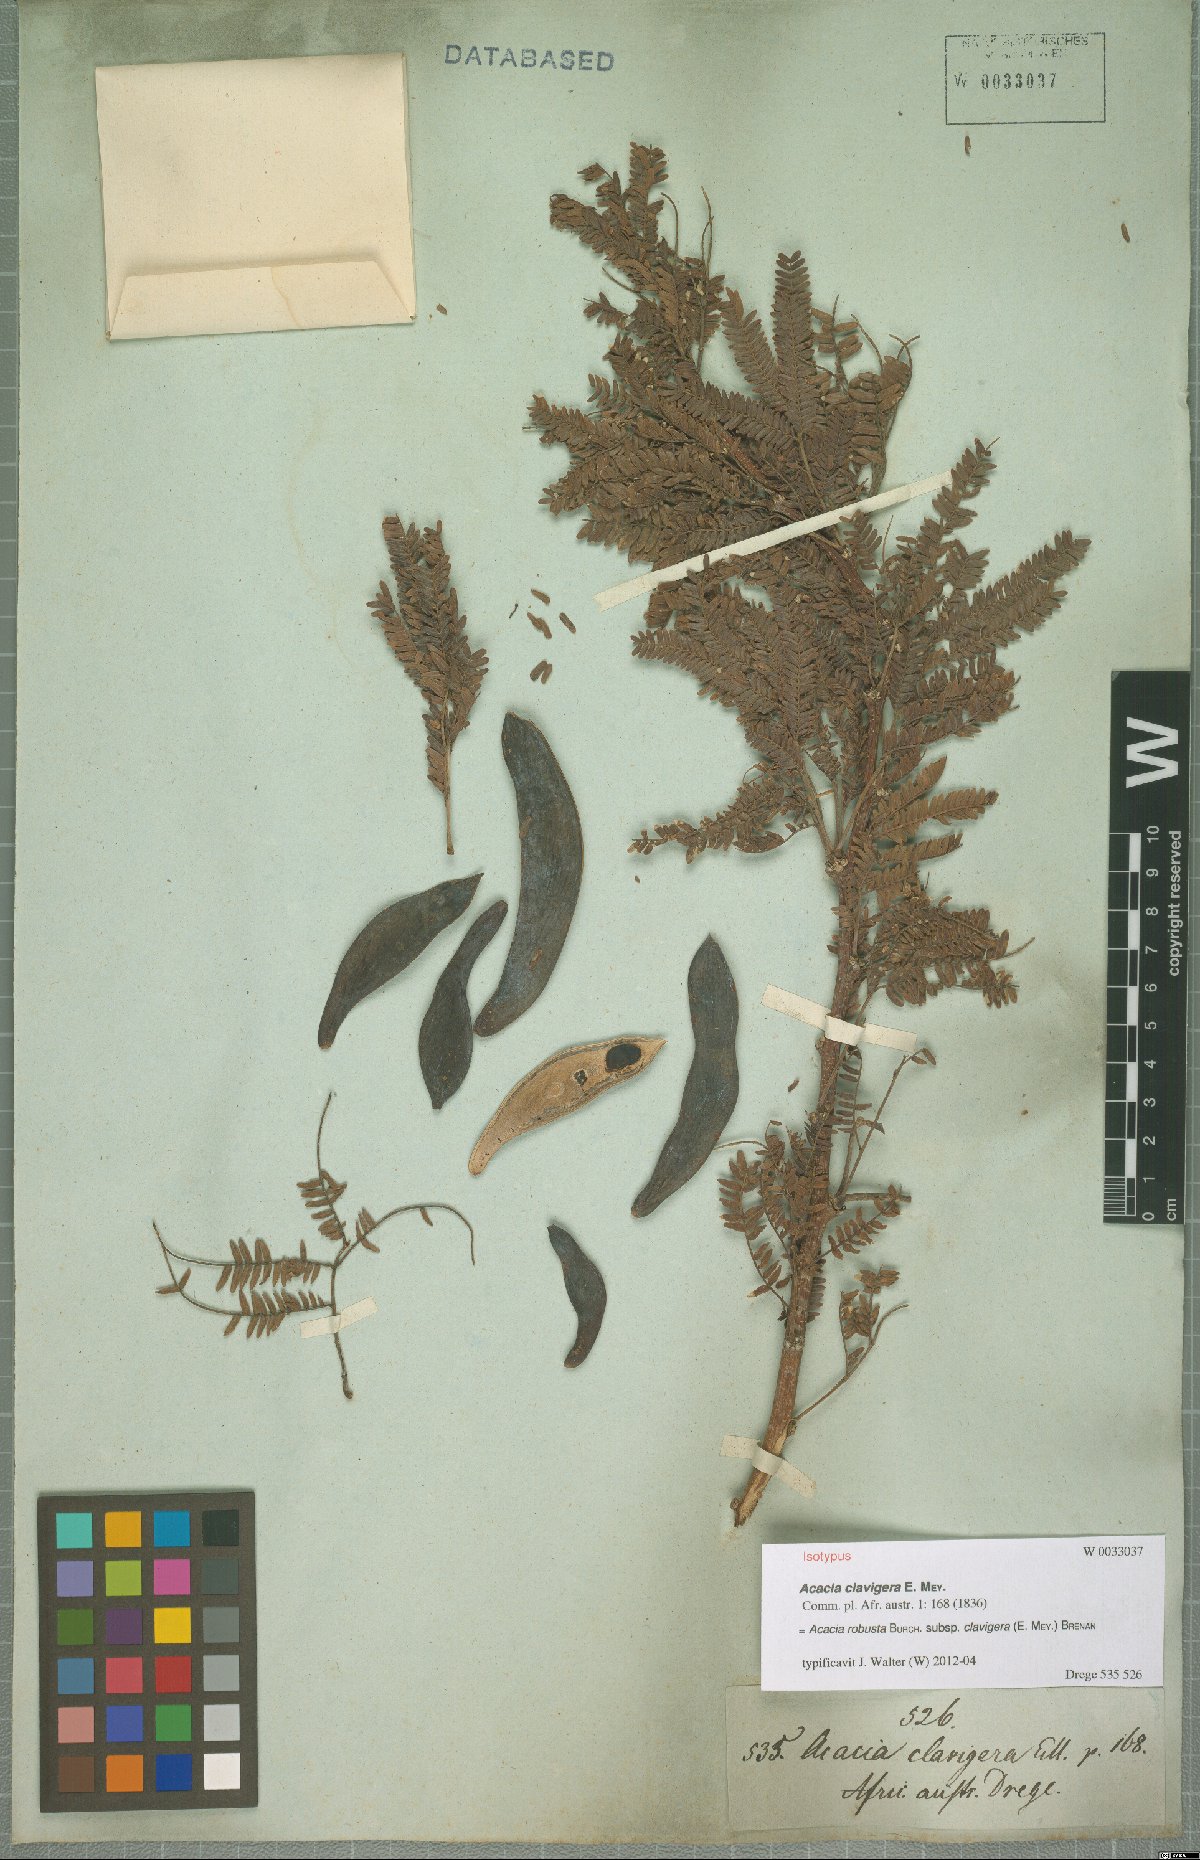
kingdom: Plantae
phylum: Tracheophyta
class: Magnoliopsida
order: Fabales
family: Fabaceae
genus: Vachellia
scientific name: Vachellia robusta
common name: Ankle thorn
